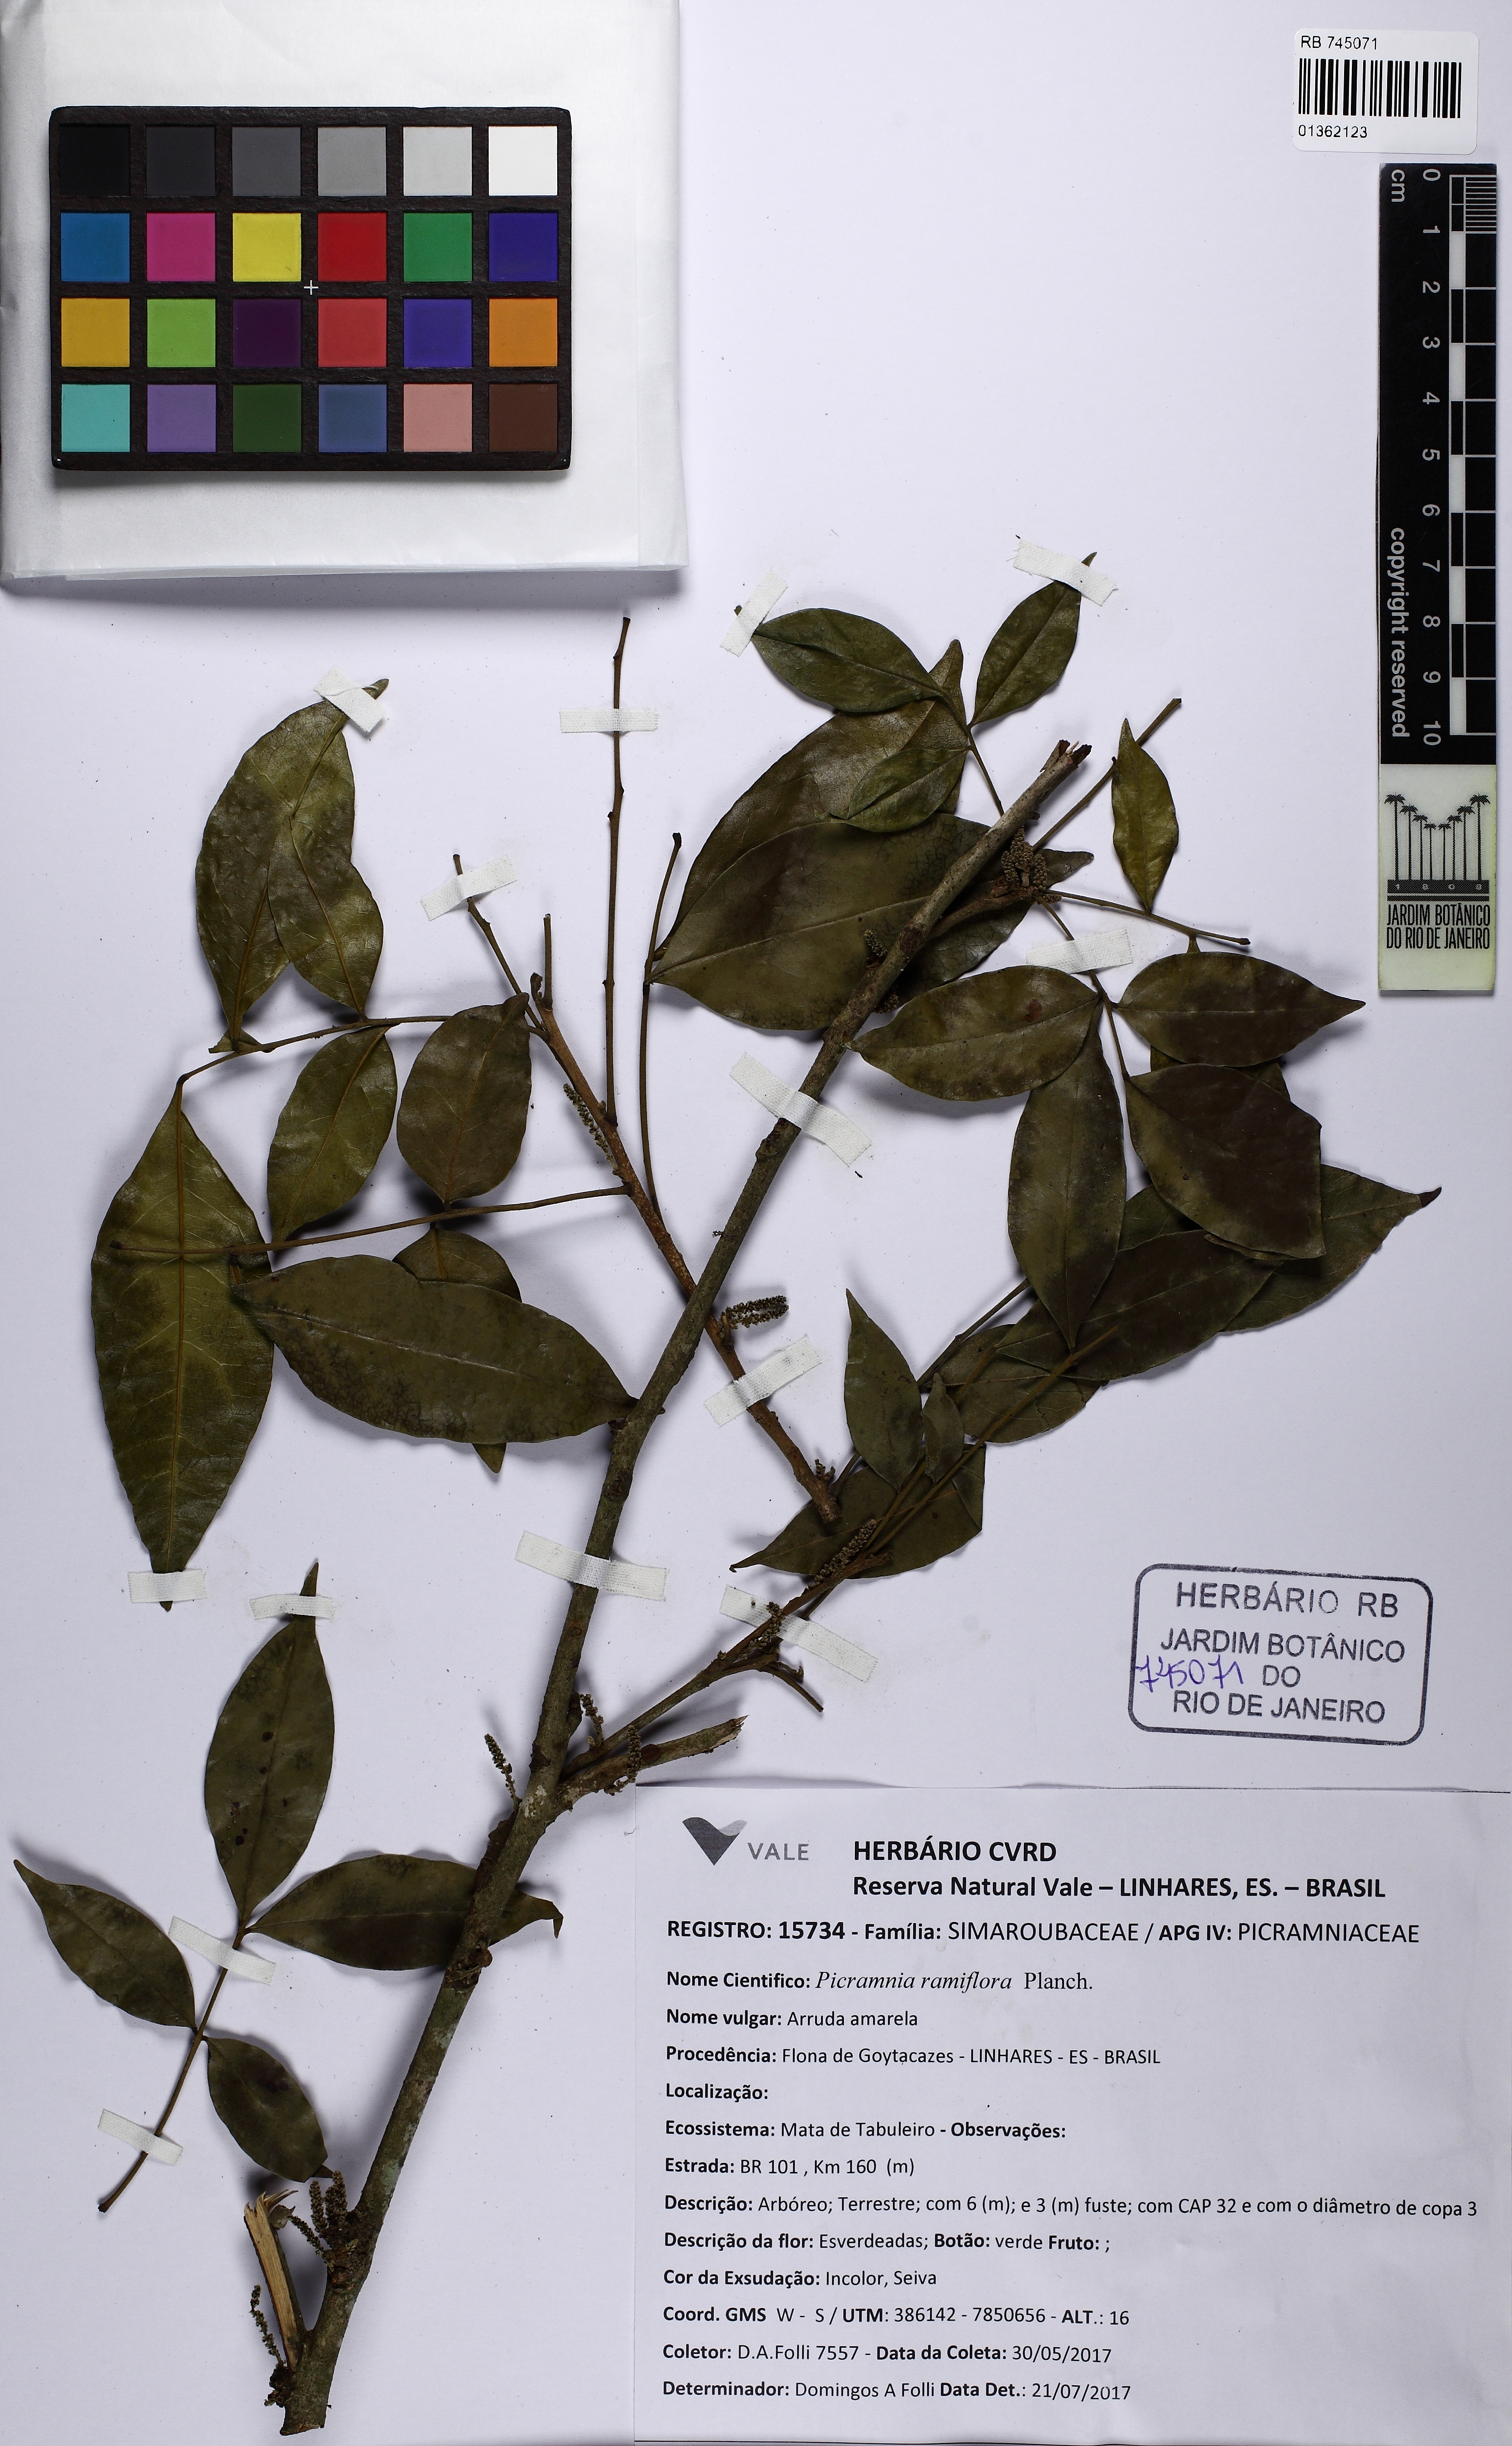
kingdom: Plantae
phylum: Tracheophyta
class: Magnoliopsida
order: Picramniales
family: Picramniaceae
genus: Picramnia
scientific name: Picramnia ramiflora
